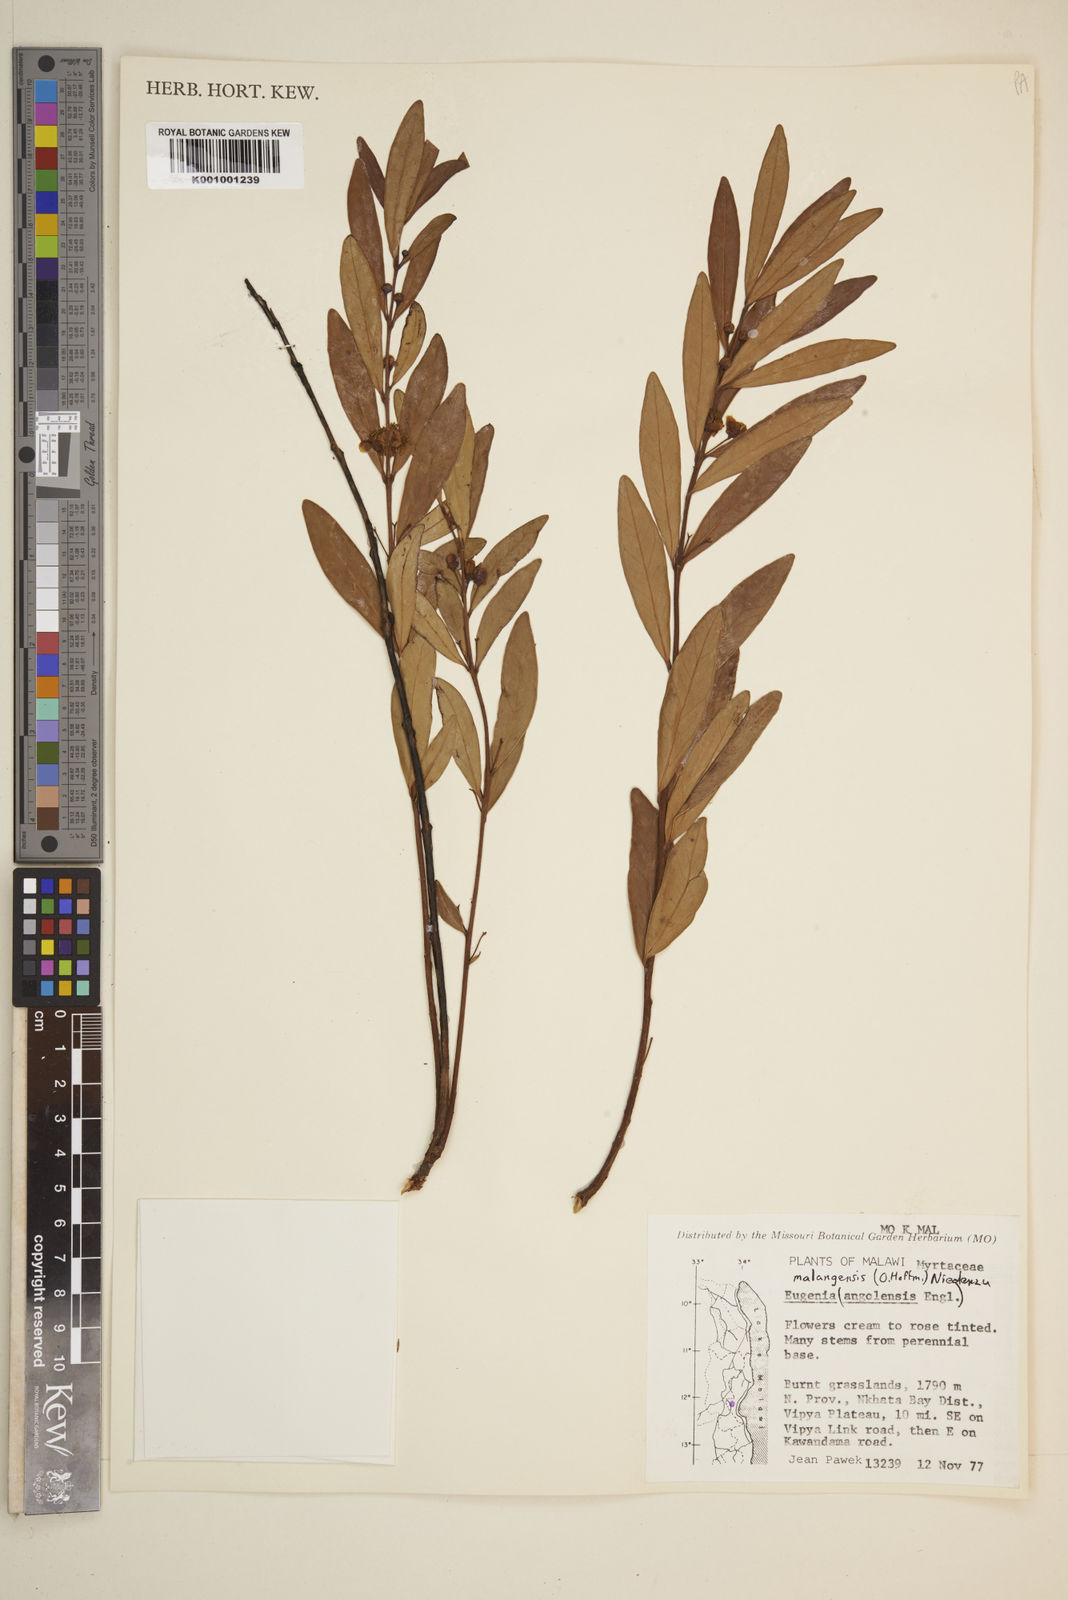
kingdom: Plantae
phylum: Tracheophyta
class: Magnoliopsida
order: Myrtales
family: Myrtaceae
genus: Eugenia
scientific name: Eugenia malangensis
